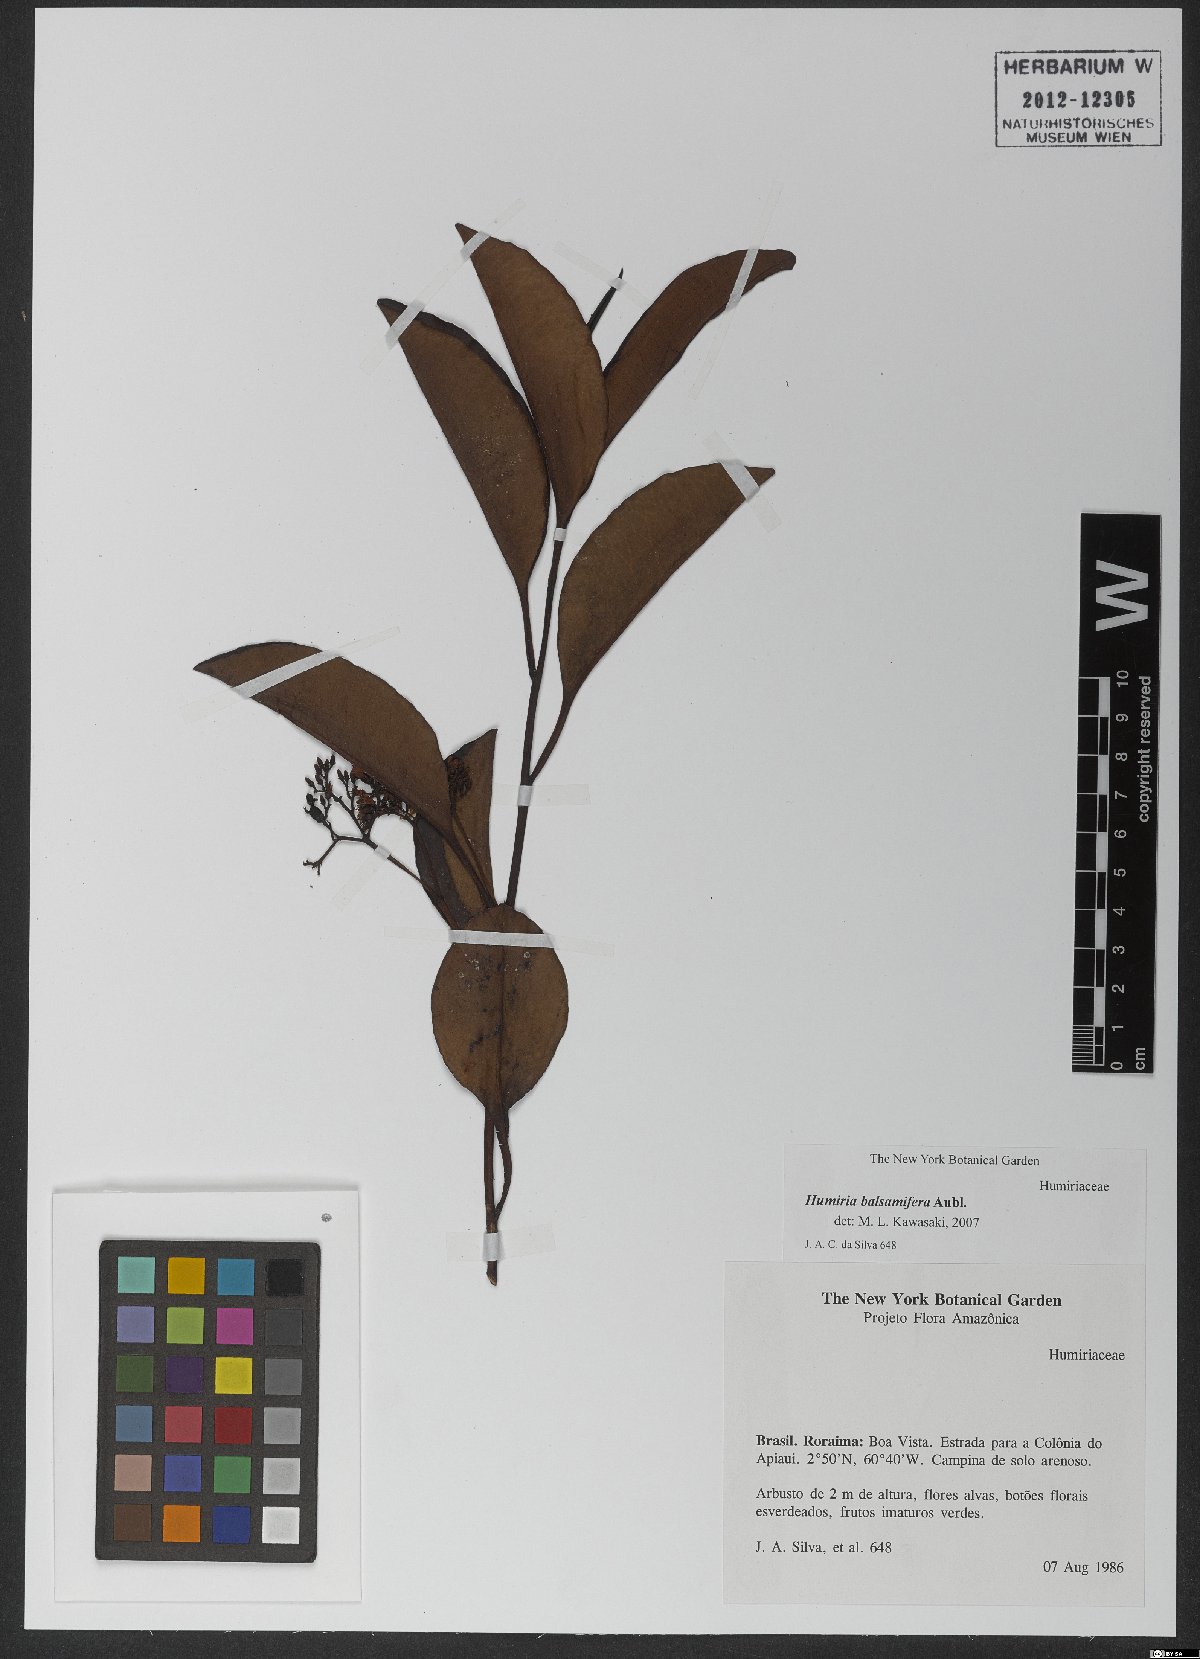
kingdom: Plantae
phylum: Tracheophyta
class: Magnoliopsida
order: Malpighiales
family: Humiriaceae
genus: Humiria
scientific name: Humiria balsamifera
